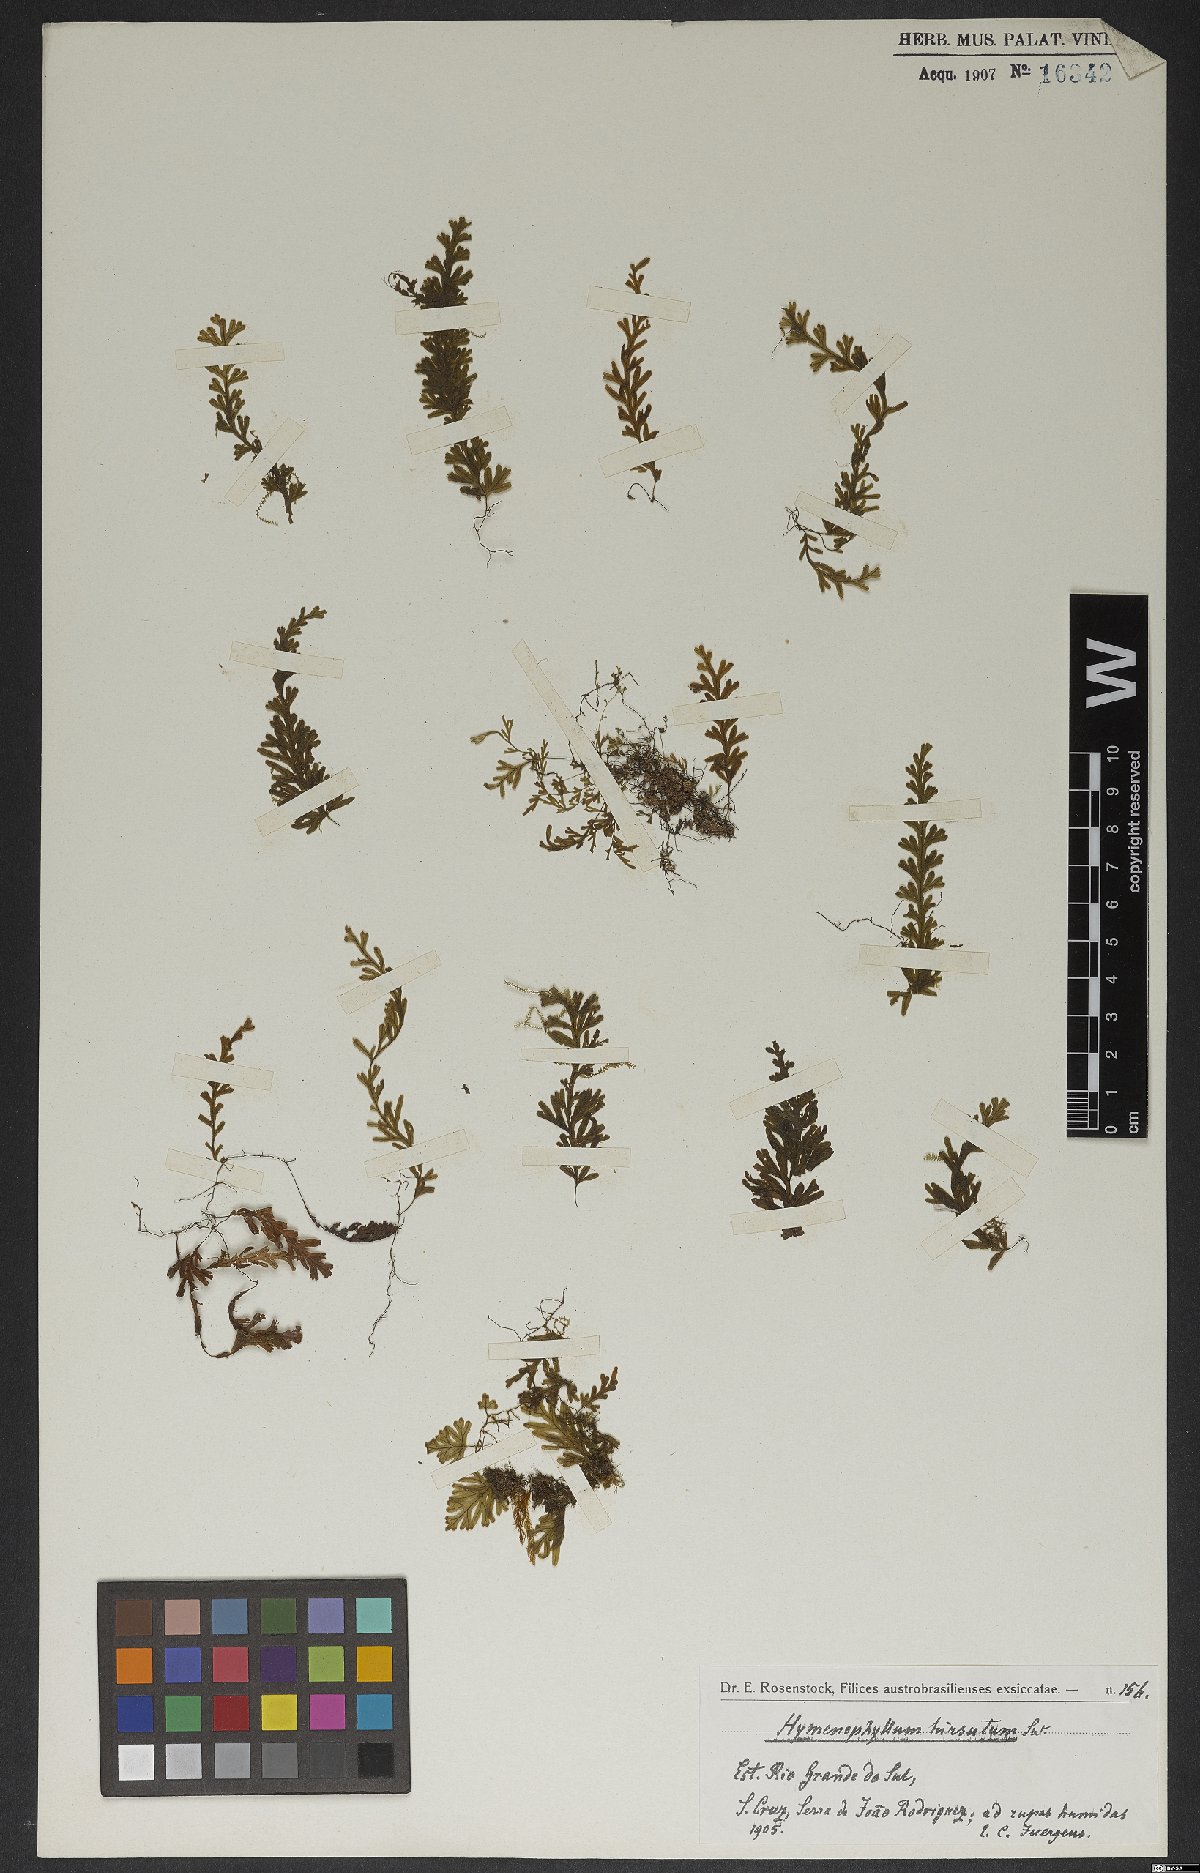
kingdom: Plantae
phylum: Tracheophyta
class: Polypodiopsida
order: Hymenophyllales
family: Hymenophyllaceae
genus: Hymenophyllum
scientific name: Hymenophyllum hirsutum
